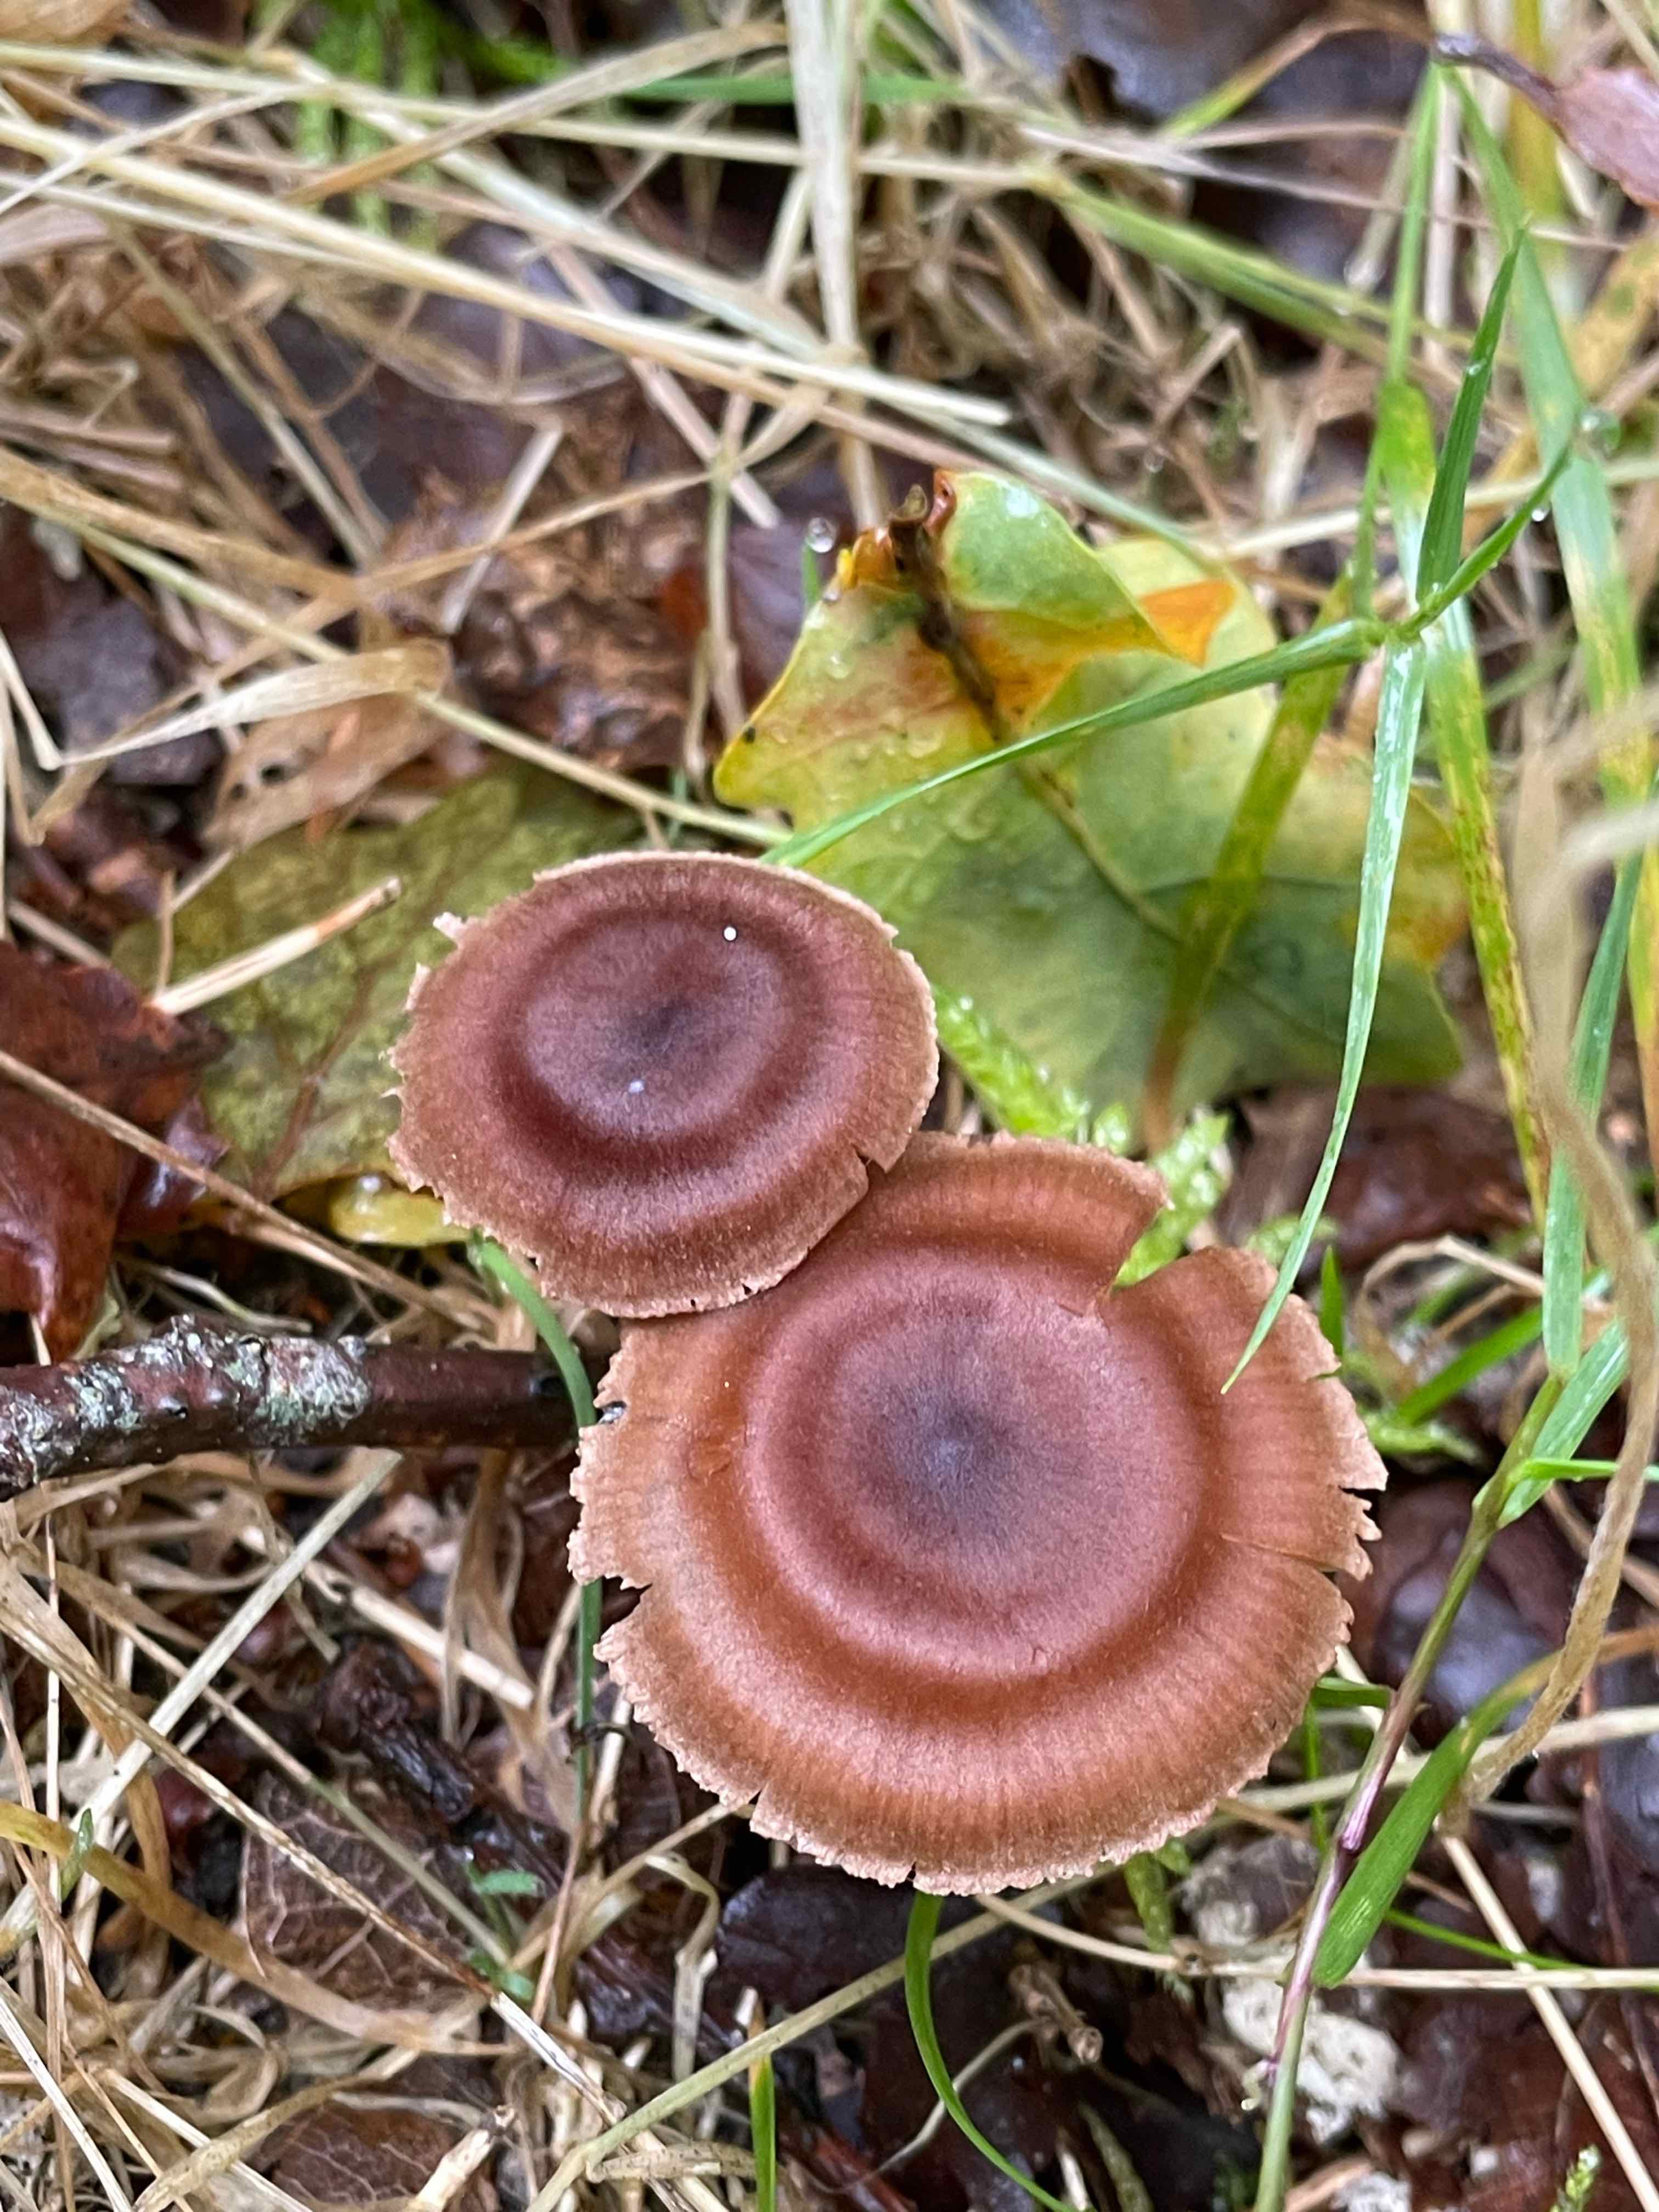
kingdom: Fungi
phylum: Basidiomycota
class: Agaricomycetes
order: Agaricales
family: Cortinariaceae
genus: Cortinarius
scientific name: Cortinarius
